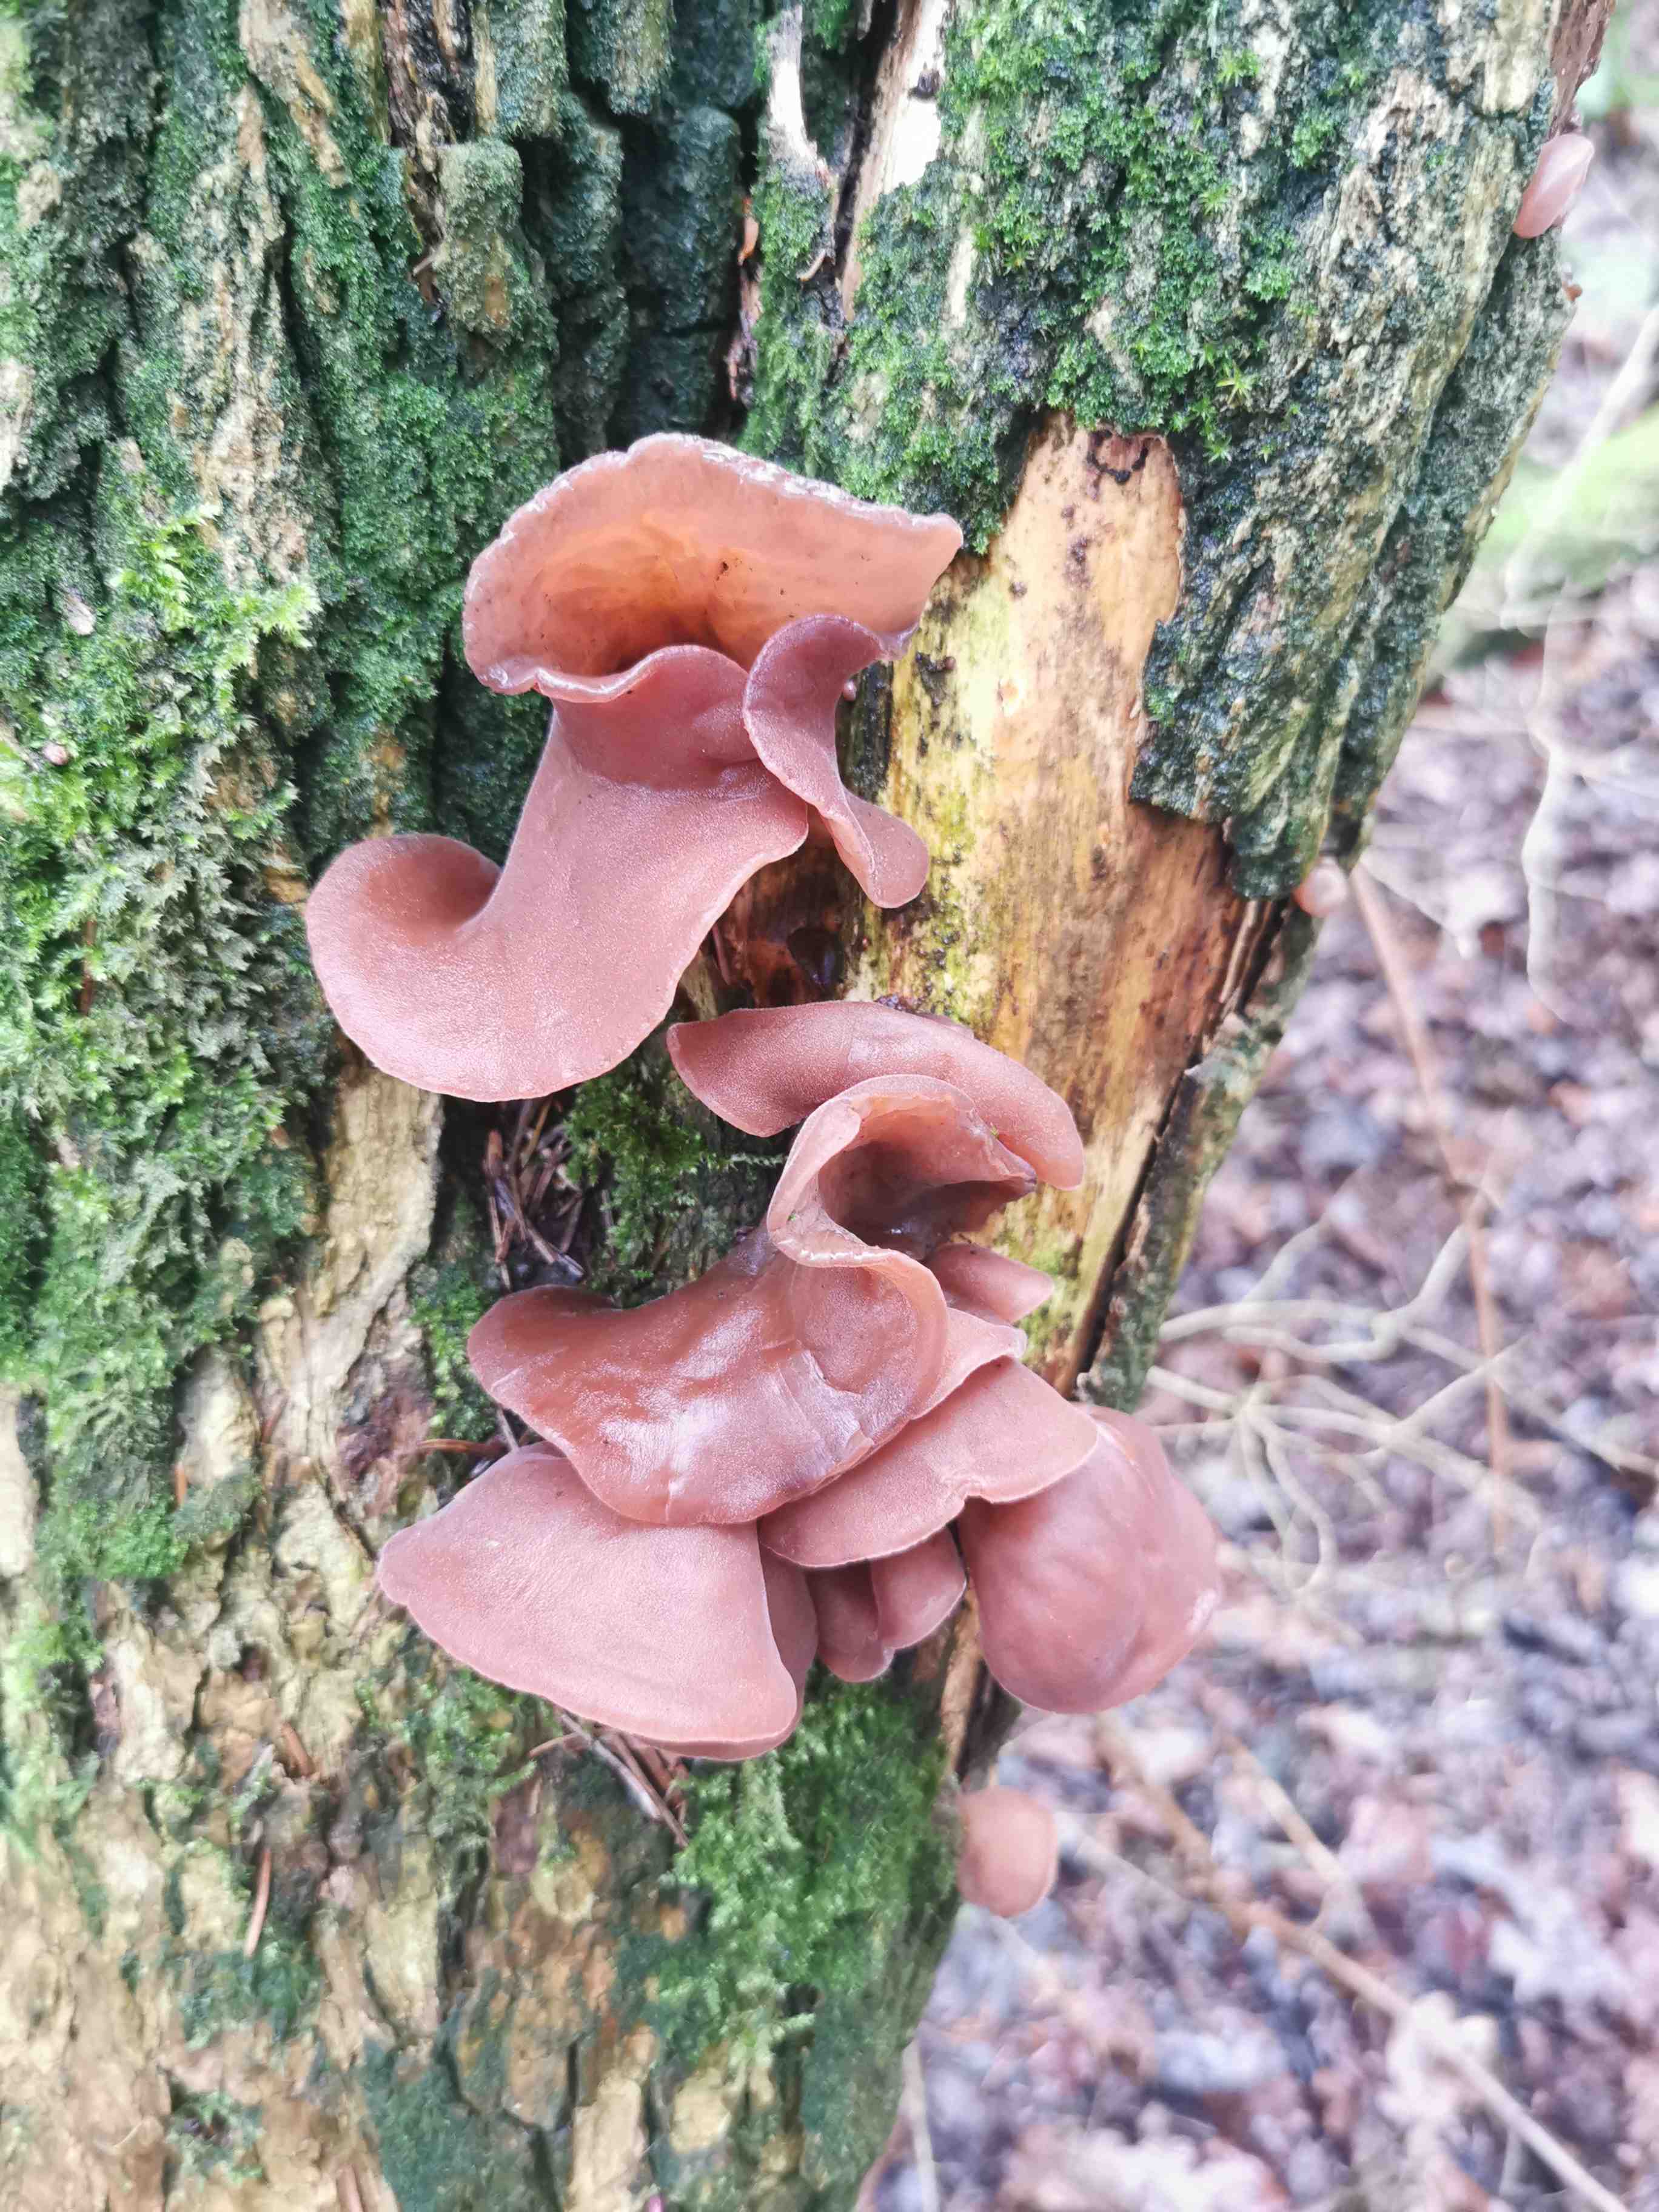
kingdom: Fungi
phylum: Basidiomycota
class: Agaricomycetes
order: Auriculariales
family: Auriculariaceae
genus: Auricularia
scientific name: Auricularia auricula-judae
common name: almindelig judasøre
